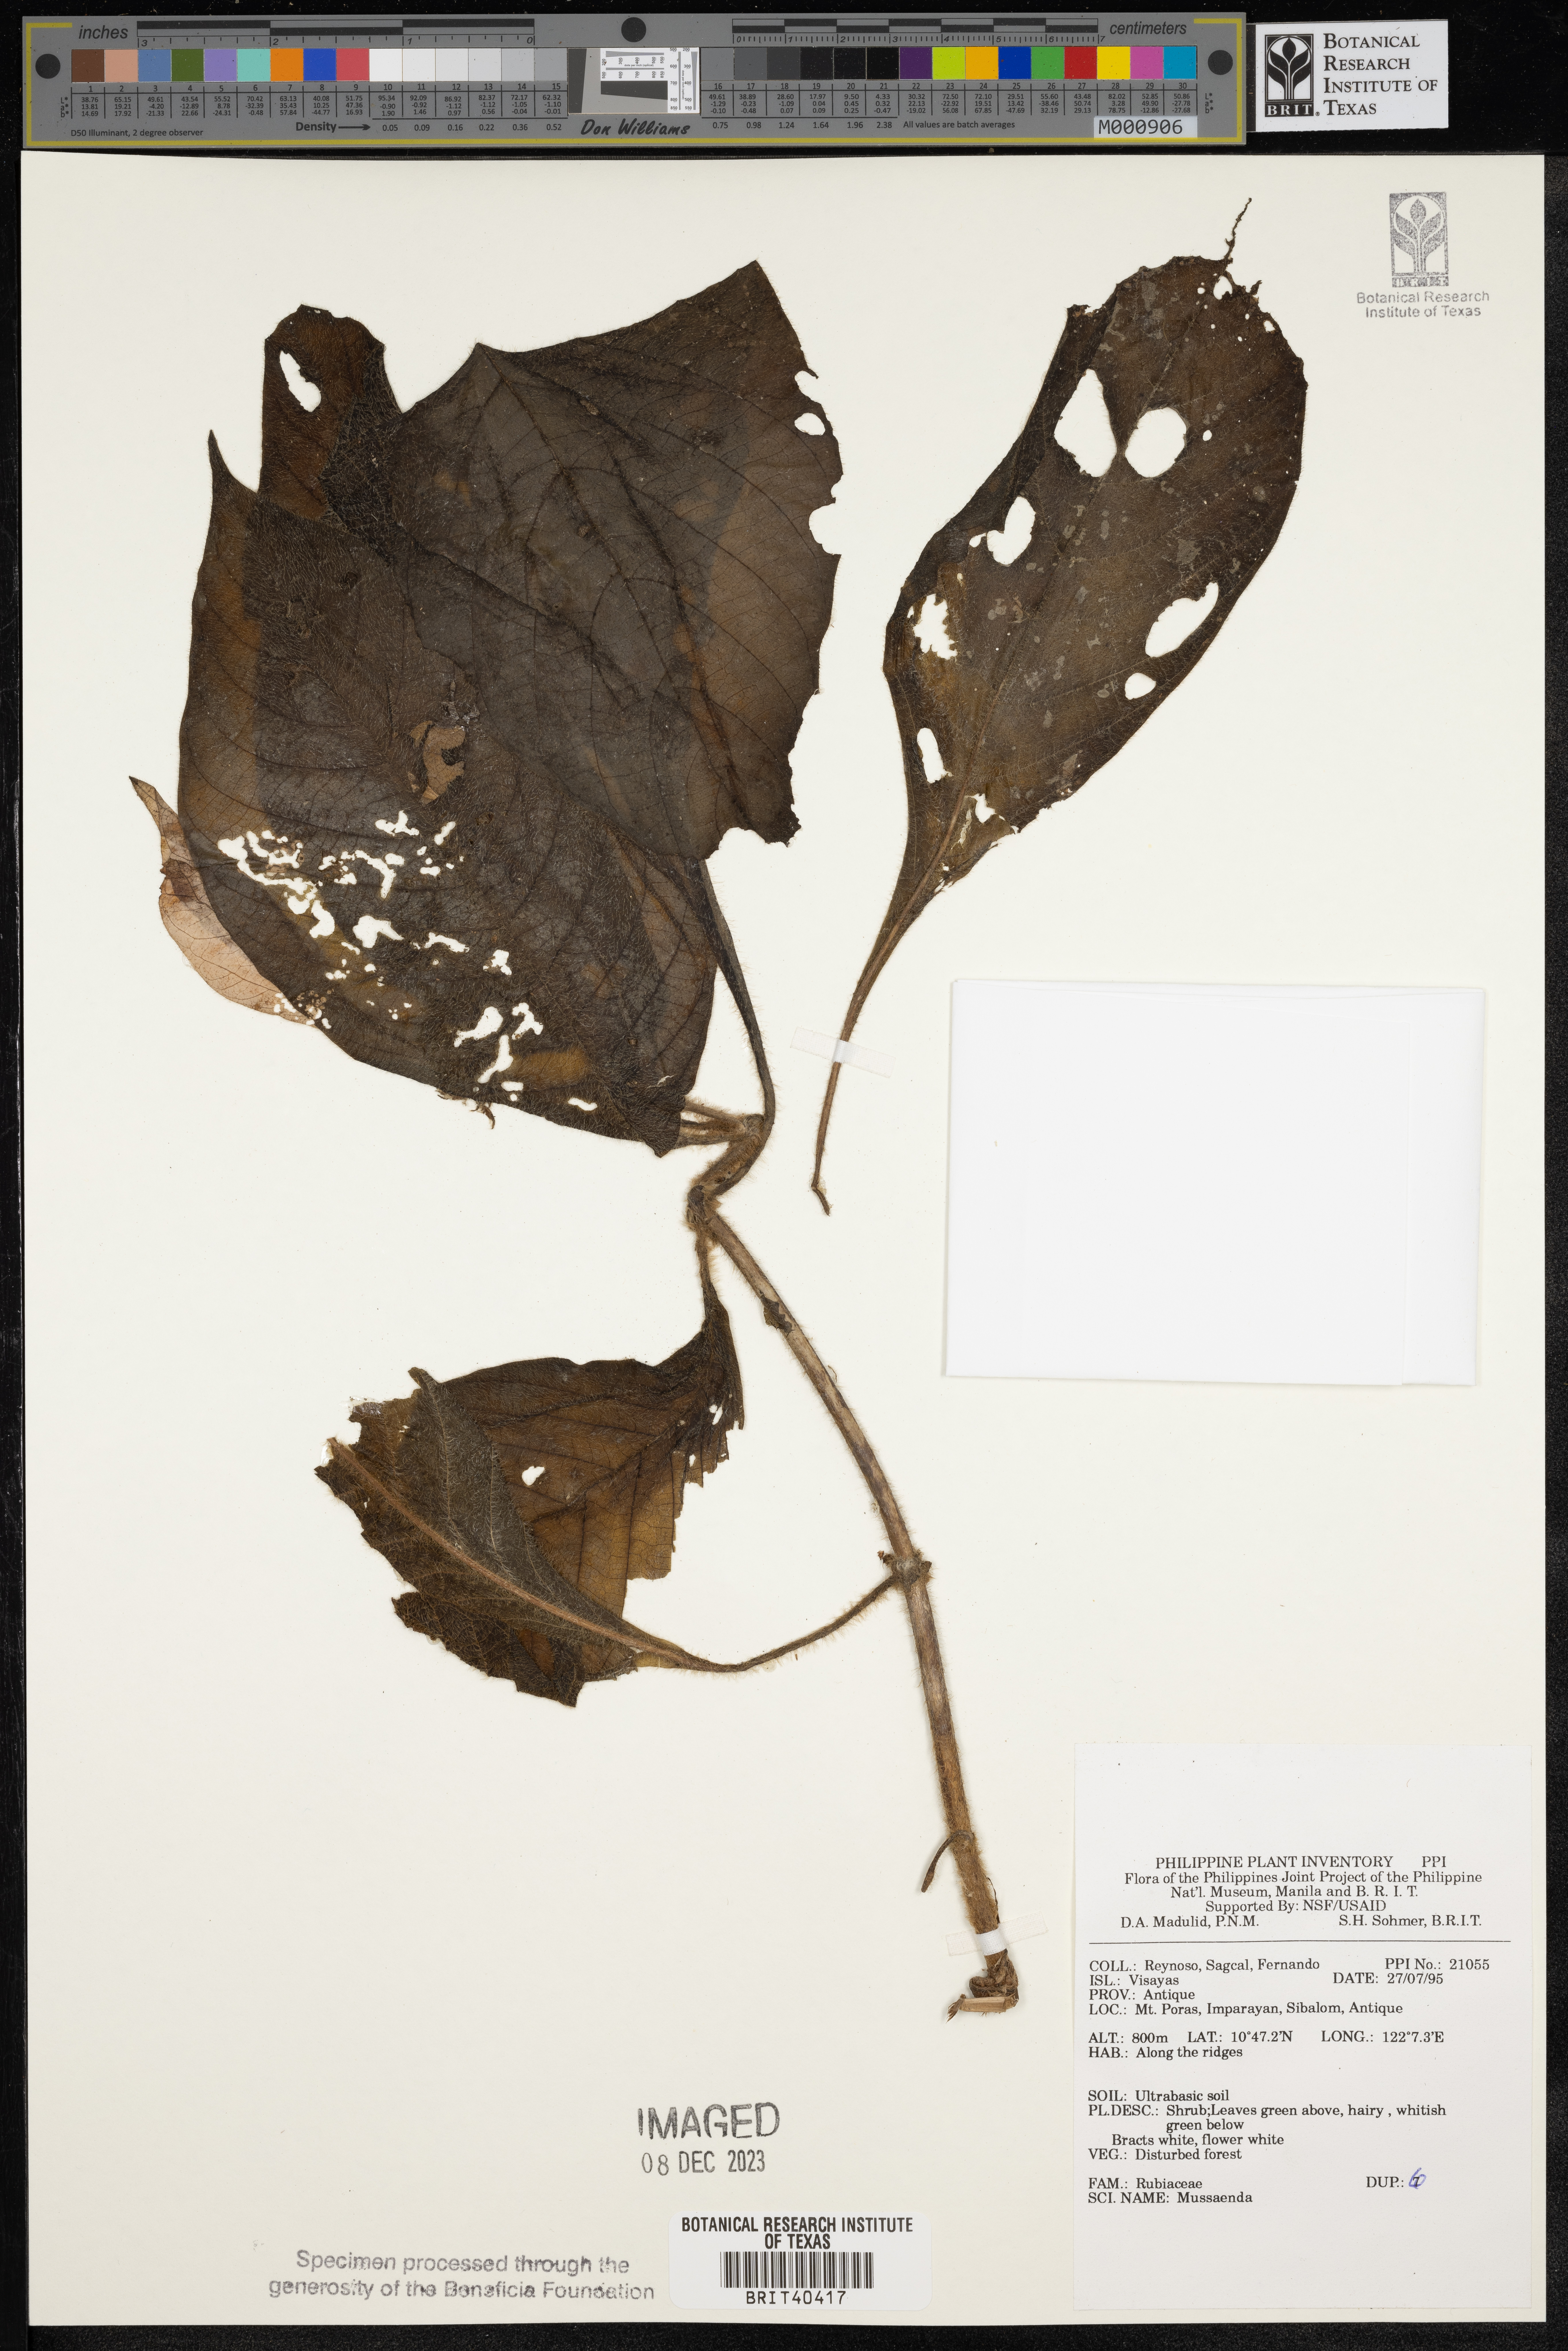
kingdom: Plantae
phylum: Tracheophyta
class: Magnoliopsida
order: Gentianales
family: Rubiaceae
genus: Mussaenda
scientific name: Mussaenda
